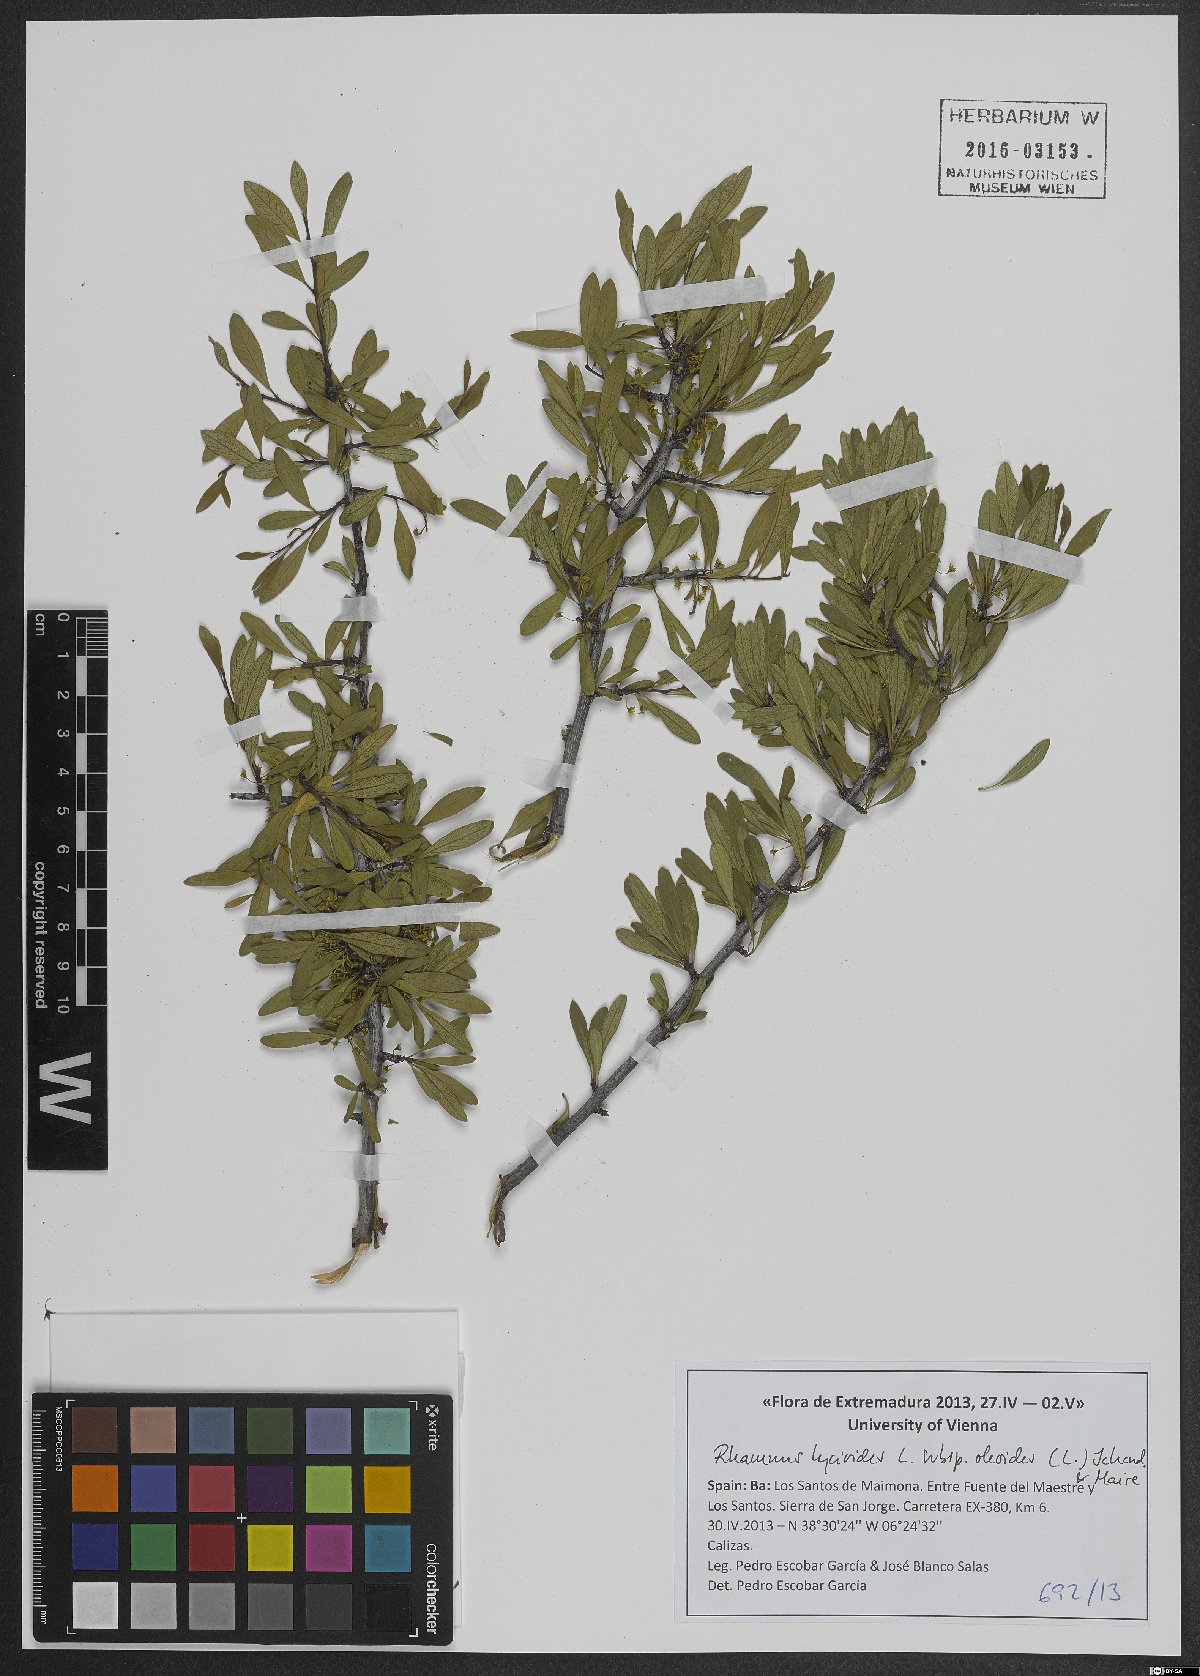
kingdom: Plantae
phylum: Tracheophyta
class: Magnoliopsida
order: Rosales
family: Rhamnaceae
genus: Rhamnus
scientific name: Rhamnus oleoides
